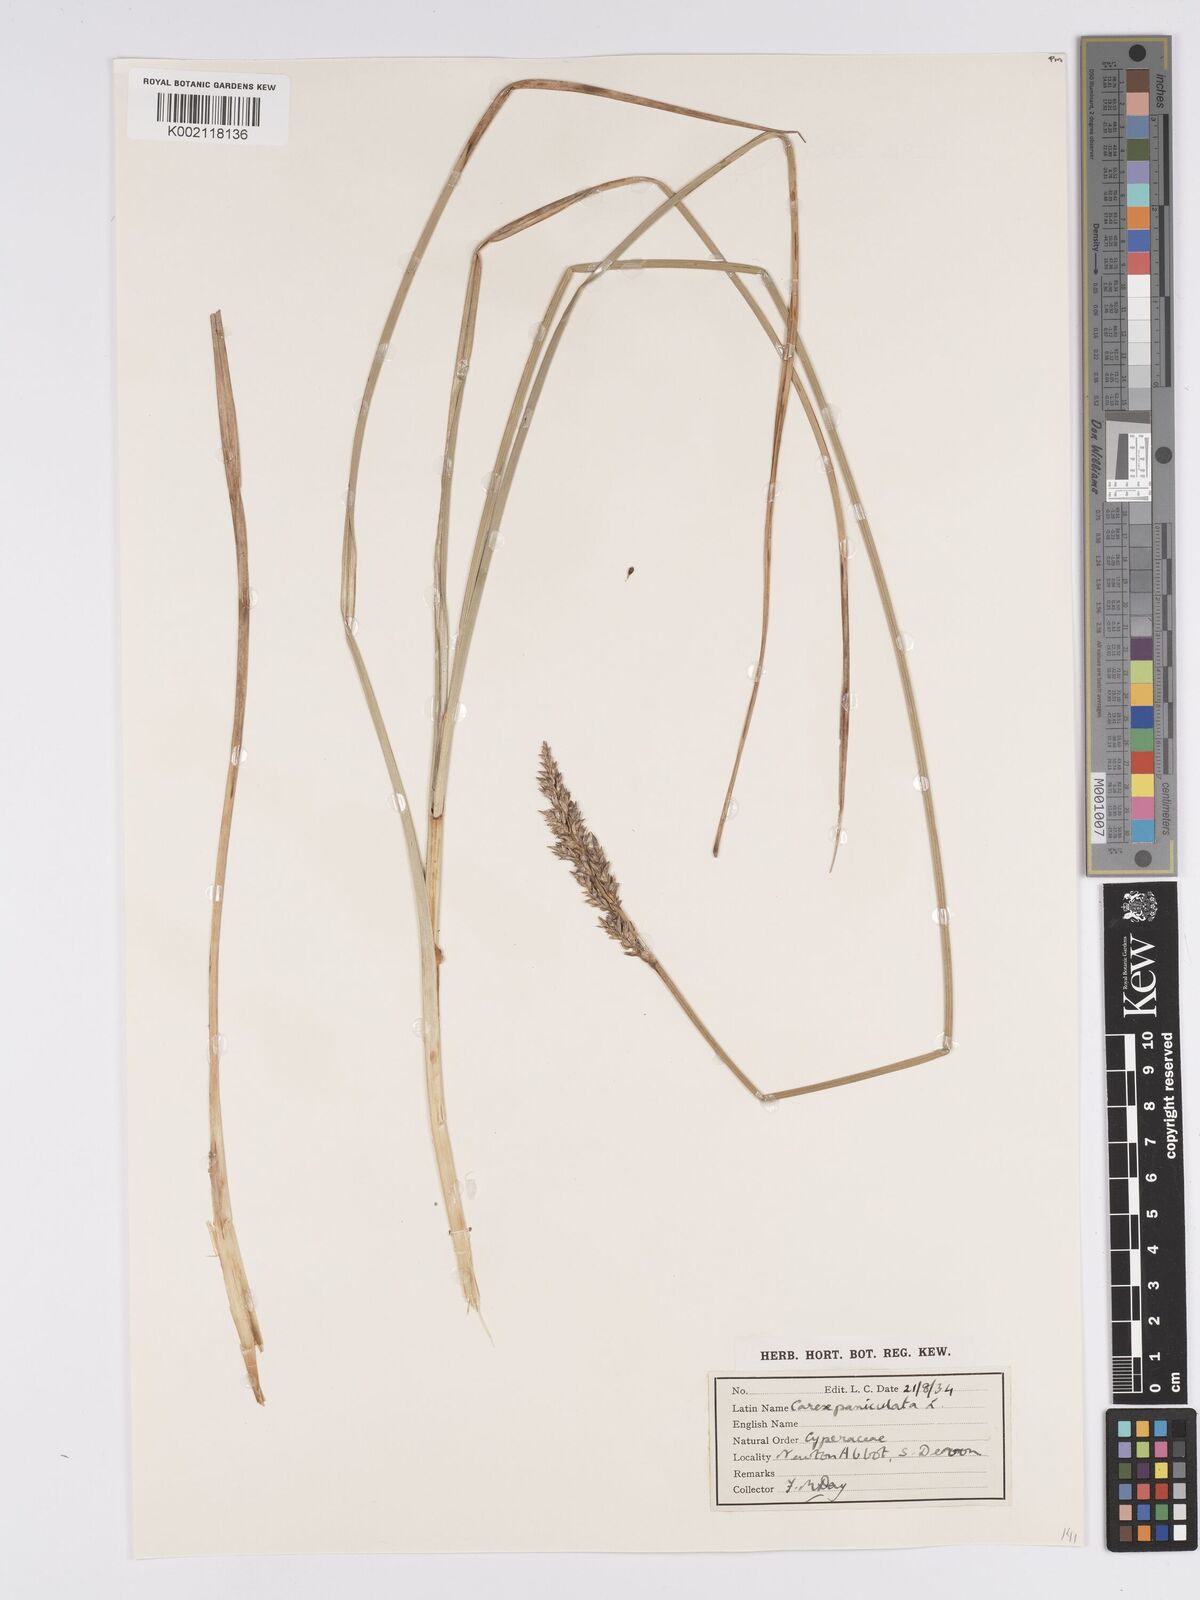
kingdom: Plantae
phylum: Tracheophyta
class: Liliopsida
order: Poales
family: Cyperaceae
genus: Carex
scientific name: Carex paniculata
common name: Greater tussock-sedge
